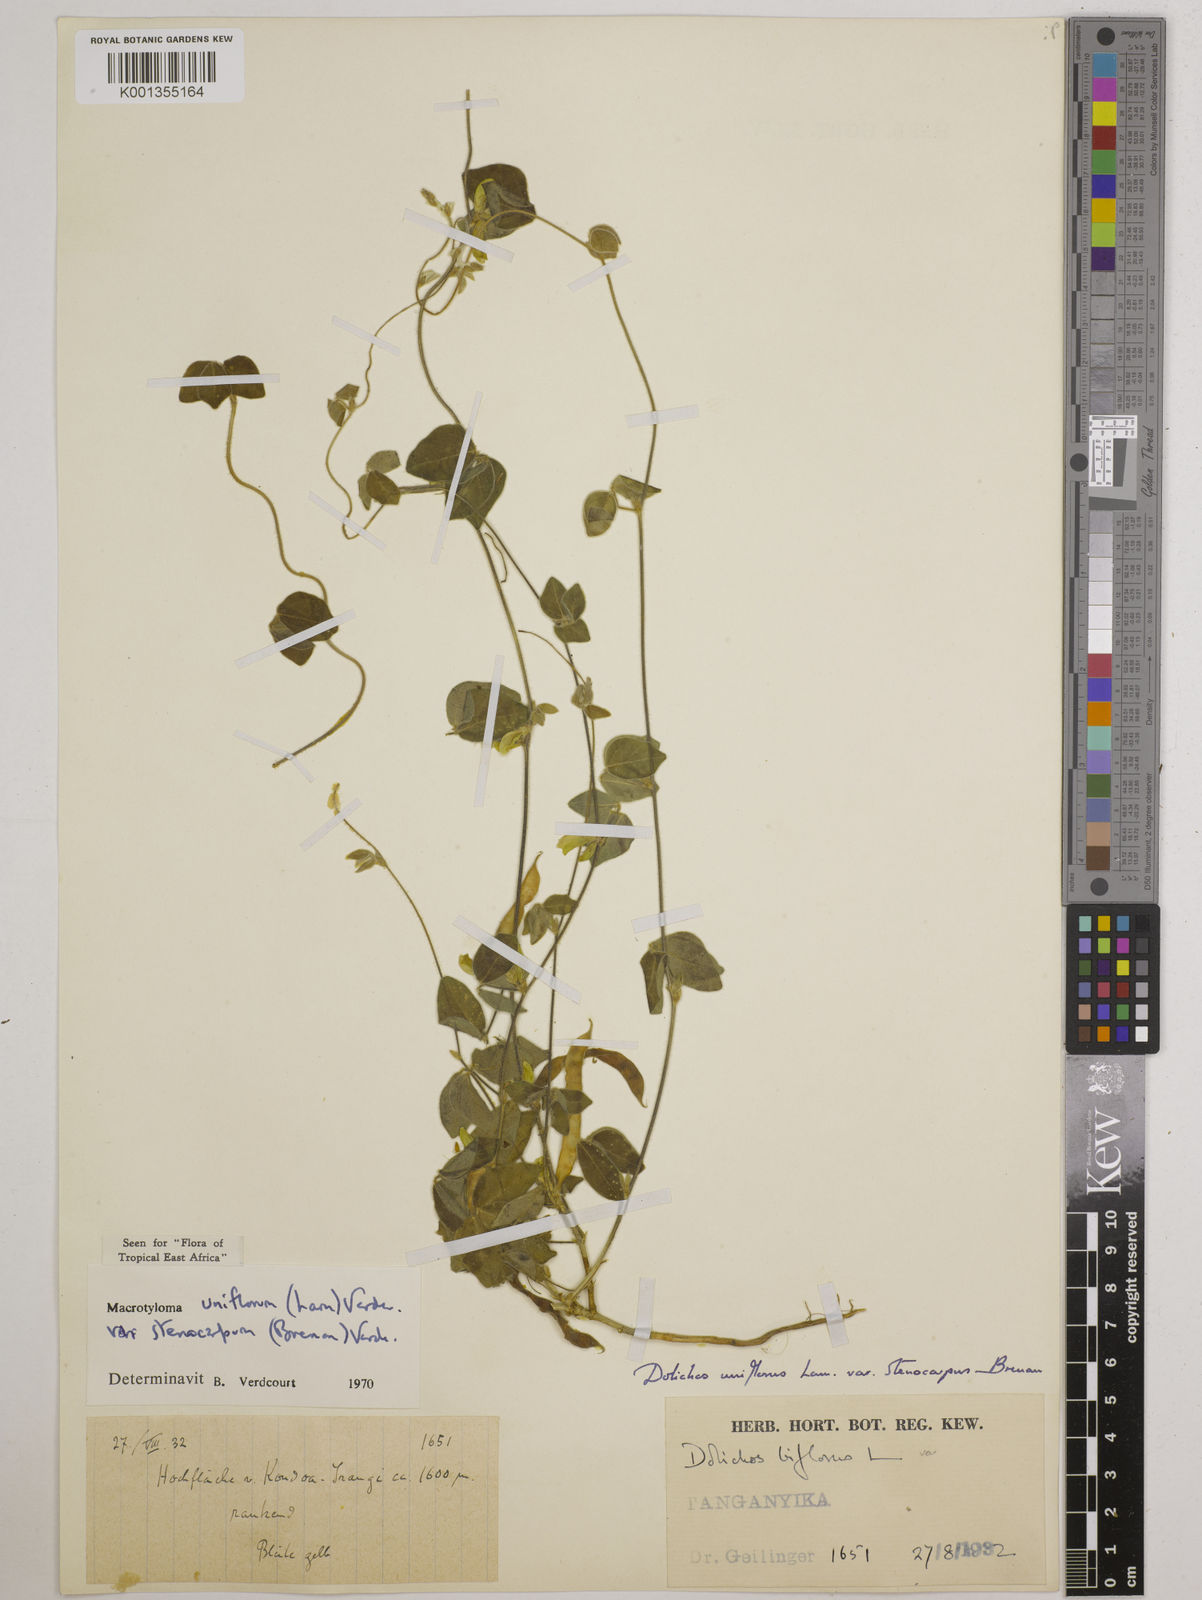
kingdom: Plantae
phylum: Tracheophyta
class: Magnoliopsida
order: Fabales
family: Fabaceae
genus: Macrotyloma
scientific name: Macrotyloma
